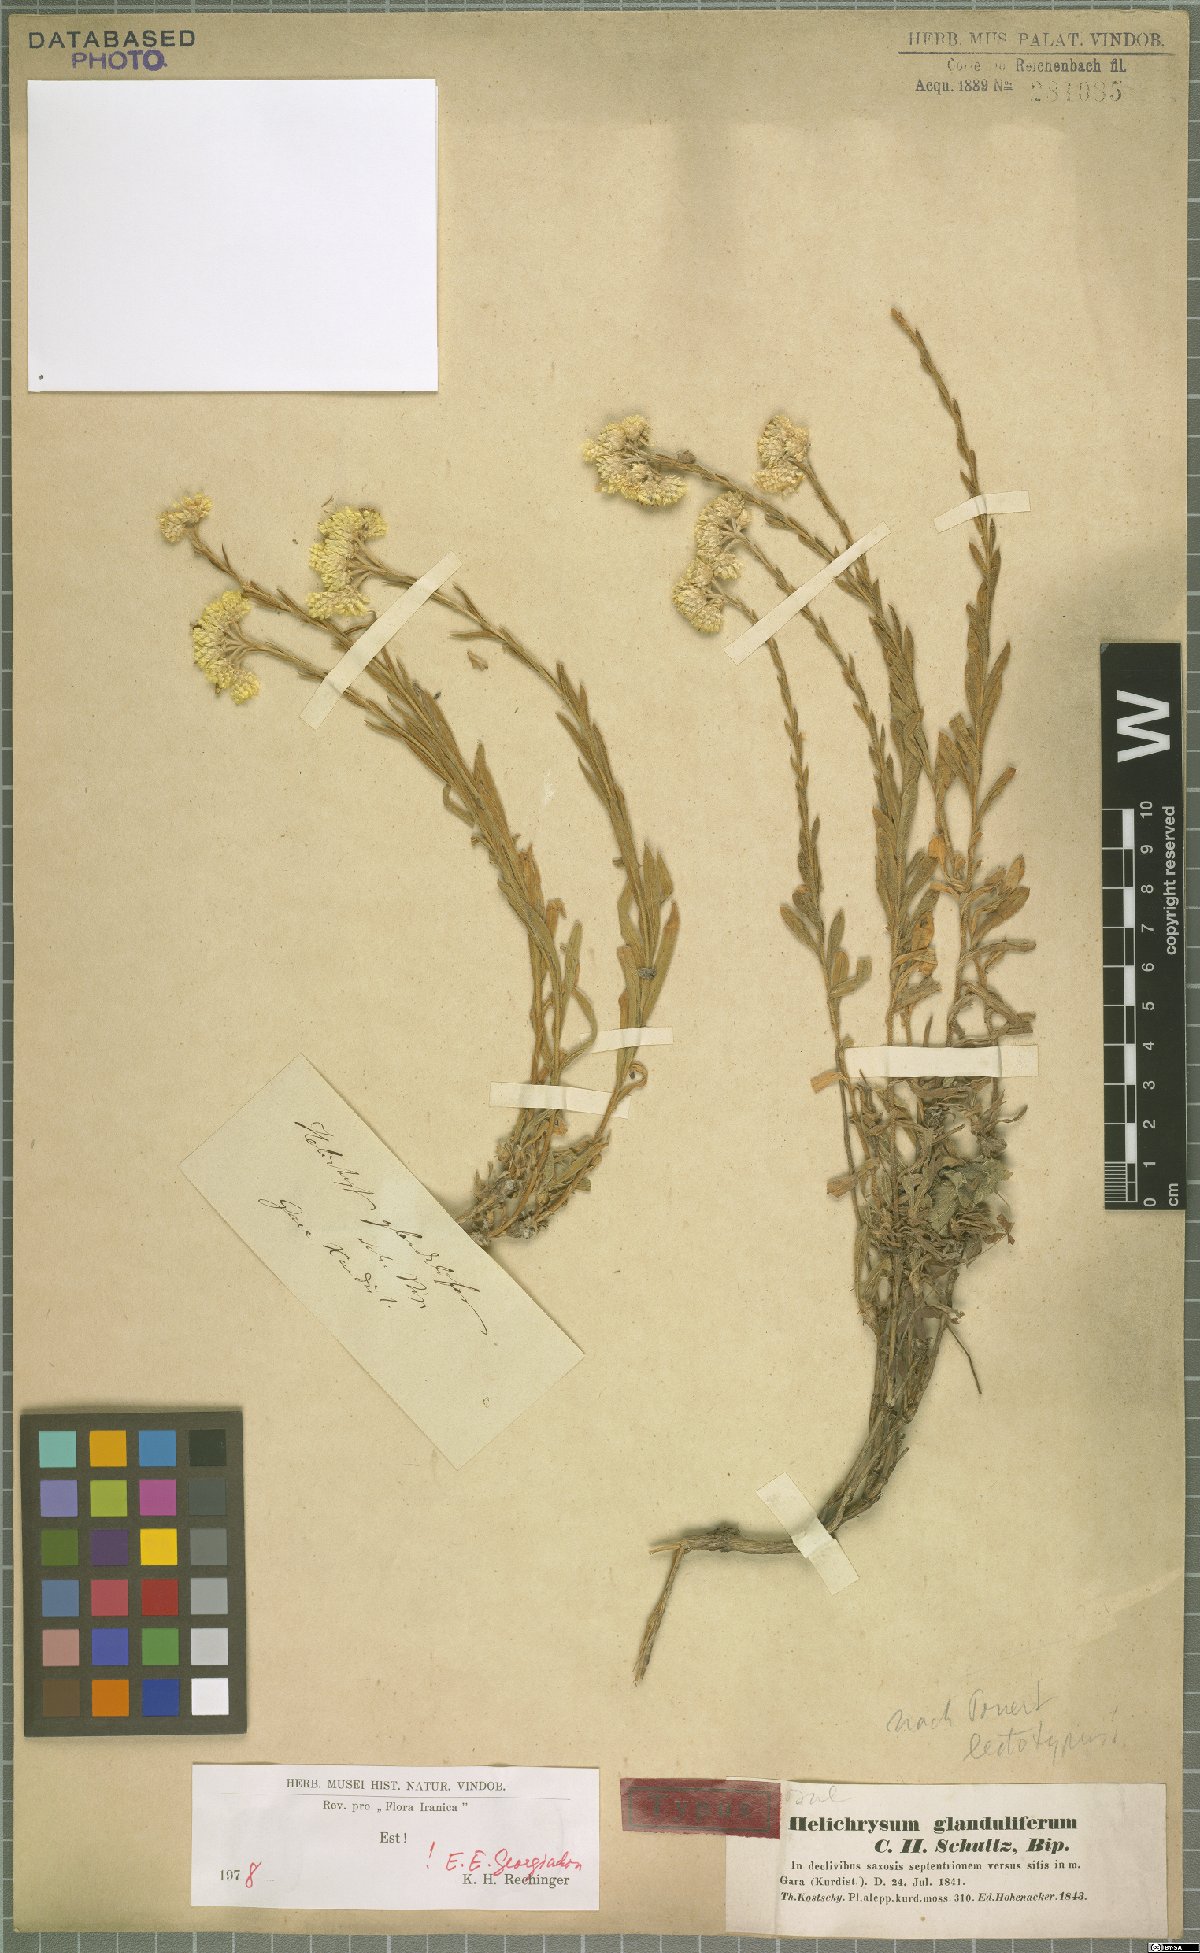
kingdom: Plantae
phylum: Tracheophyta
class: Magnoliopsida
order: Asterales
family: Asteraceae
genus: Helichrysum
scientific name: Helichrysum glanduliferum
